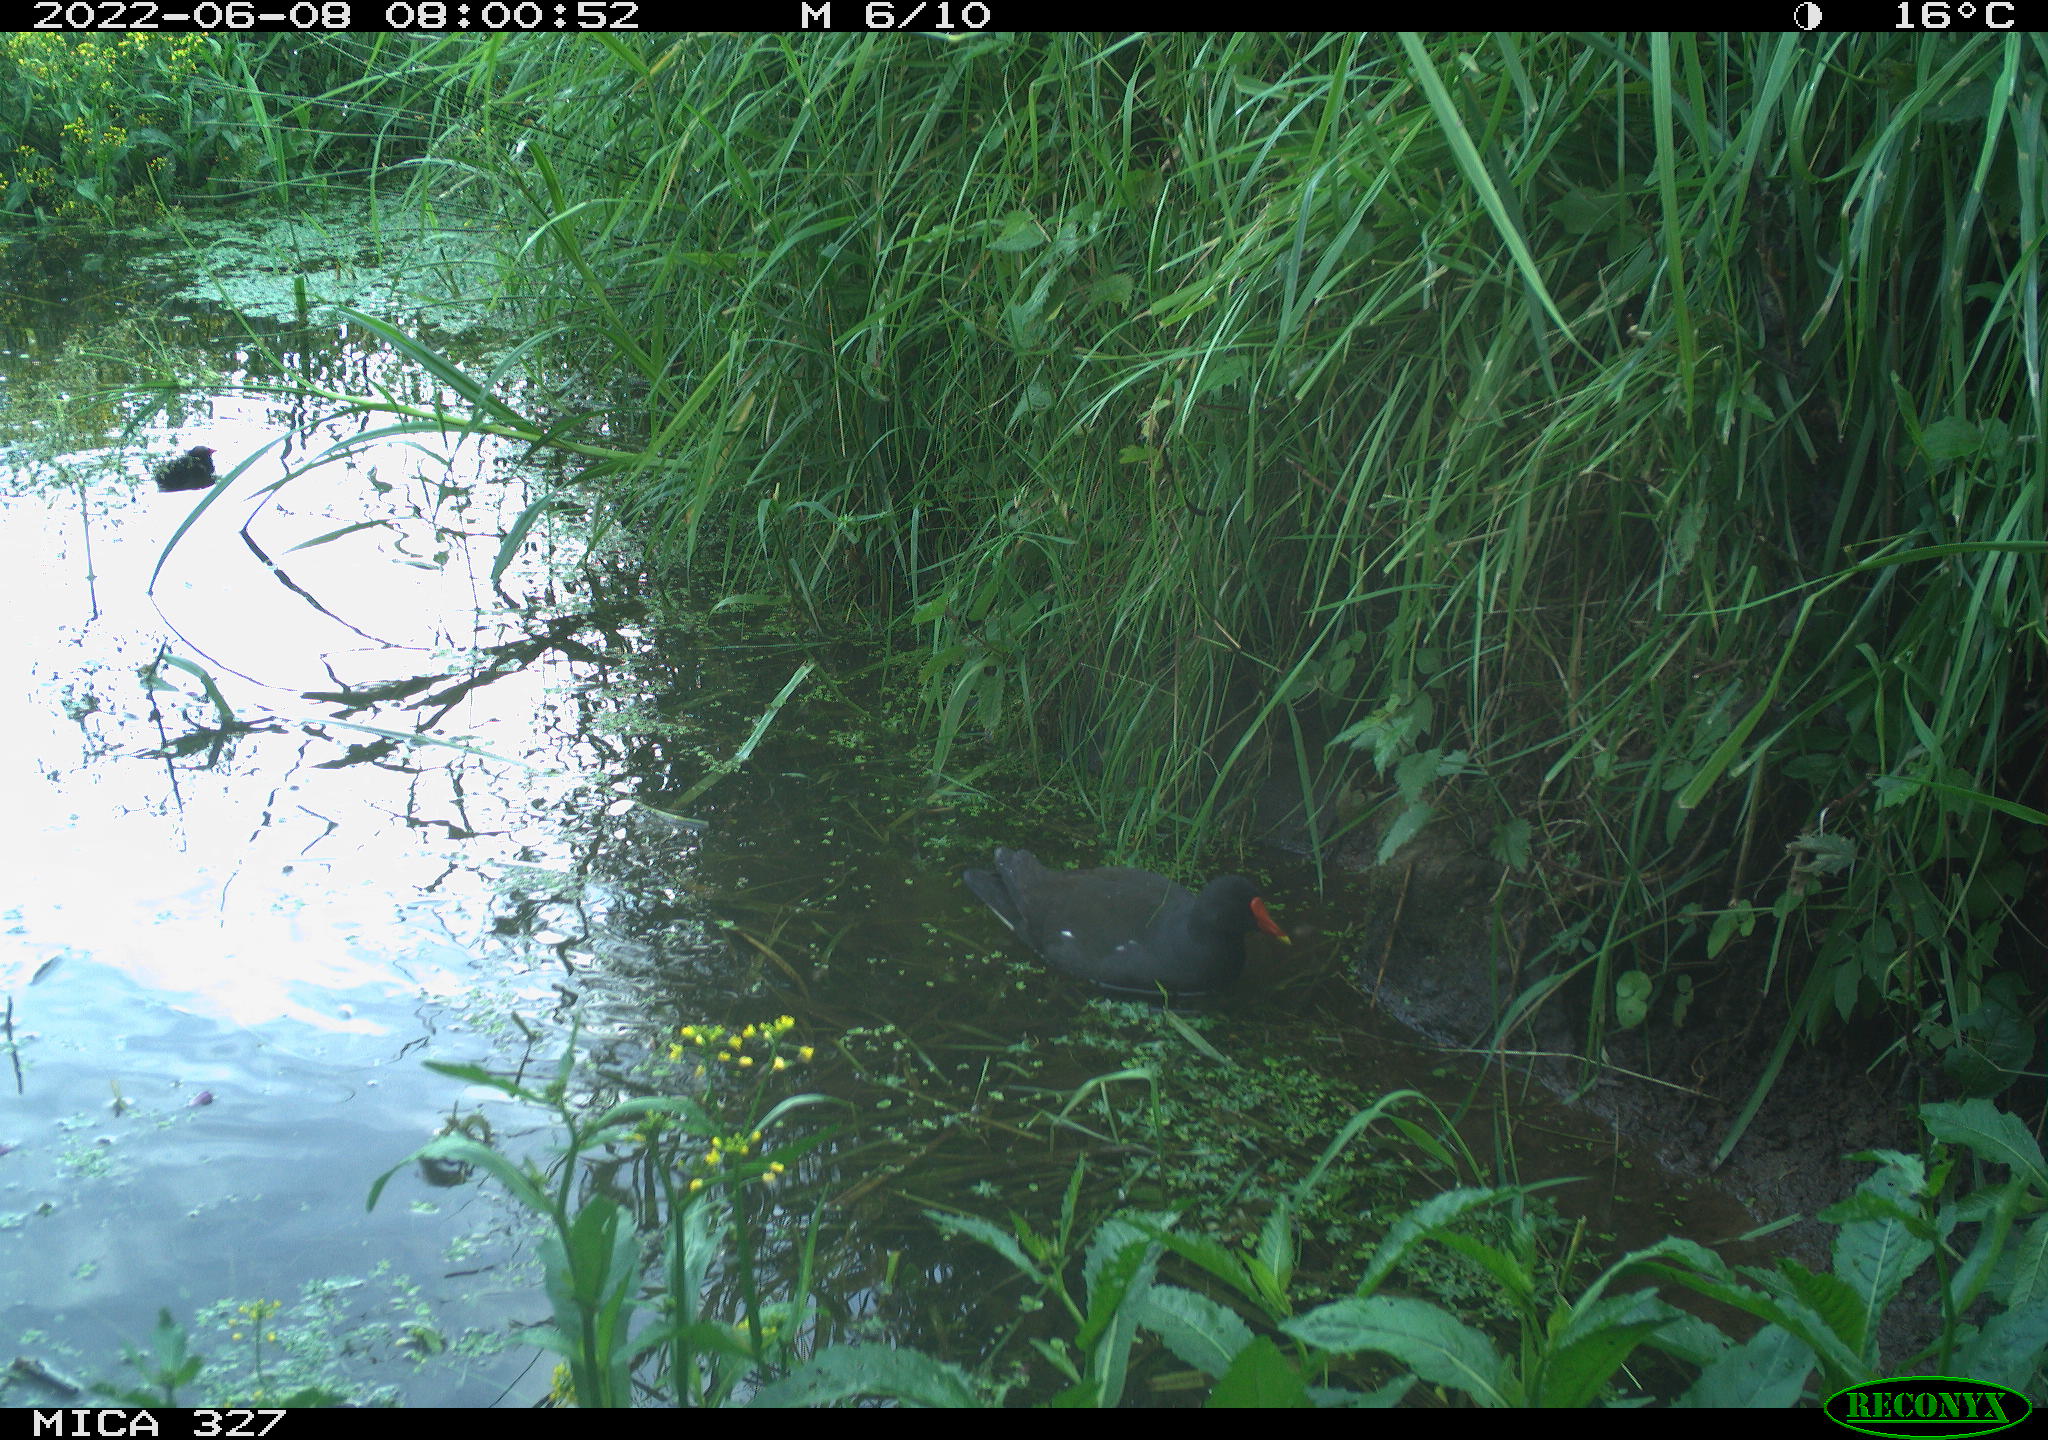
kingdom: Animalia
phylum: Chordata
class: Aves
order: Gruiformes
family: Rallidae
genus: Gallinula
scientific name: Gallinula chloropus
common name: Common moorhen
